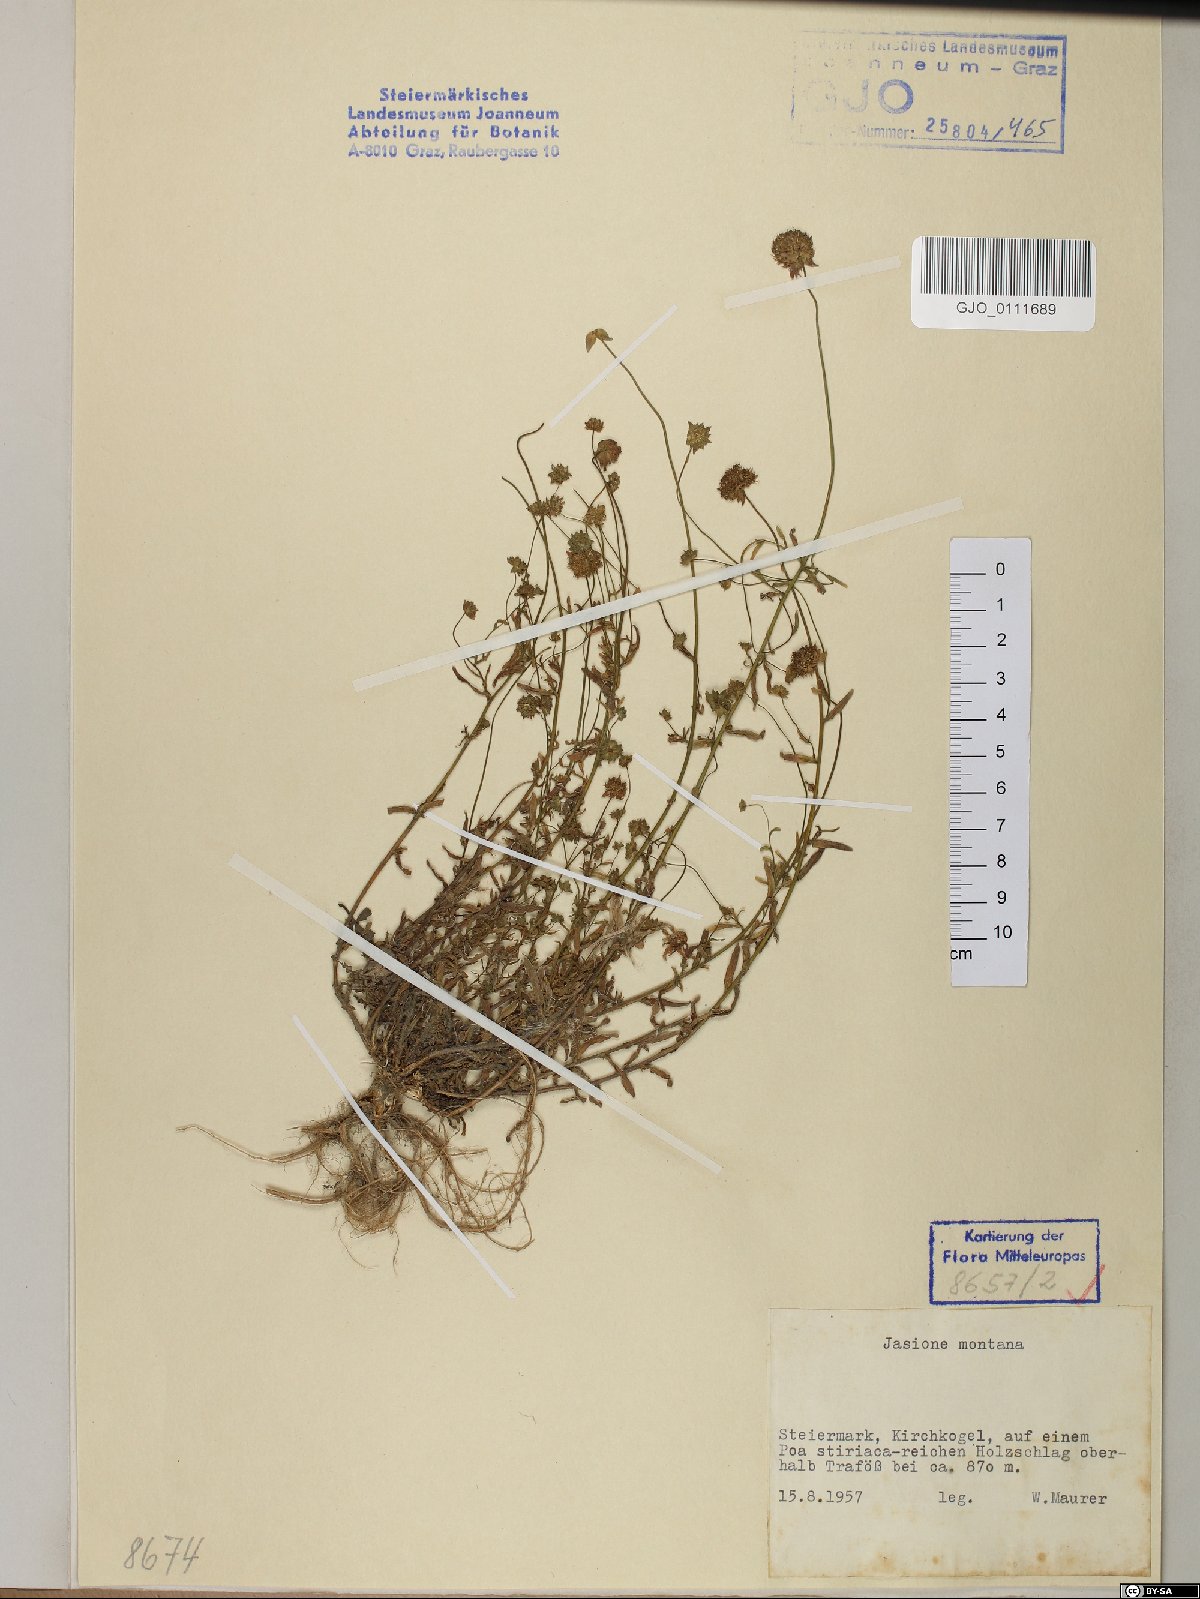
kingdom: Plantae
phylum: Tracheophyta
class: Magnoliopsida
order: Asterales
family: Campanulaceae
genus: Jasione
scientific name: Jasione montana
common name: Sheep's-bit
